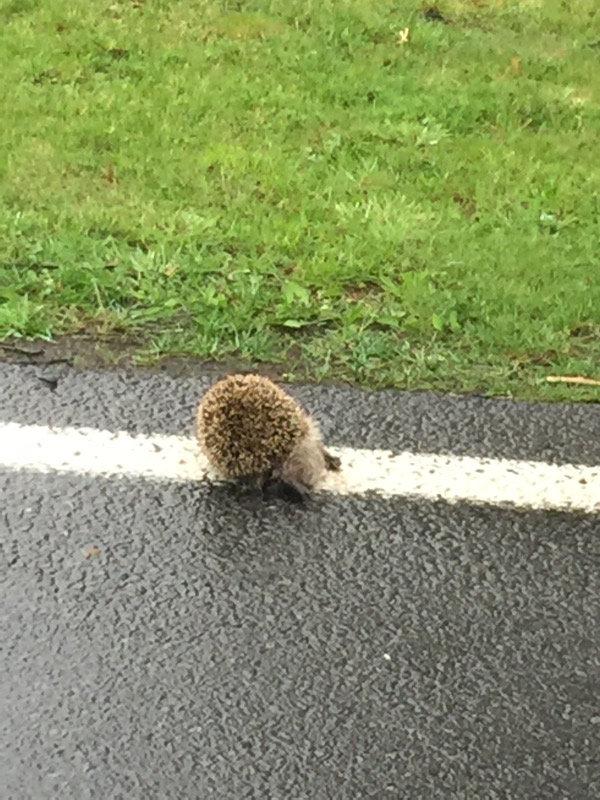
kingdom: Animalia
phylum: Chordata
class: Mammalia
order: Erinaceomorpha
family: Erinaceidae
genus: Erinaceus
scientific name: Erinaceus
